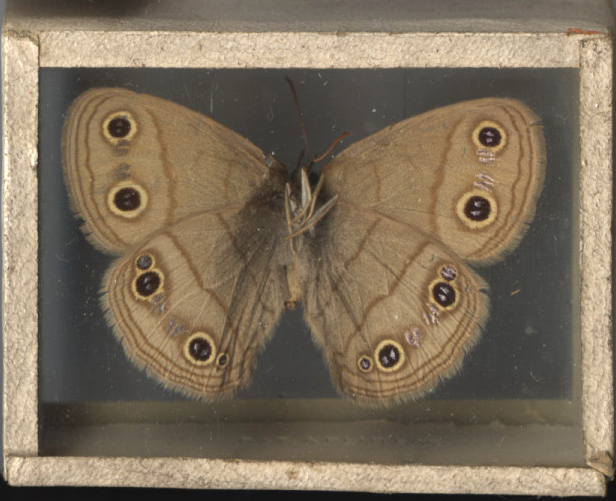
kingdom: Animalia
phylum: Arthropoda
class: Insecta
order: Lepidoptera
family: Nymphalidae
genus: Euptychia
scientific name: Euptychia cymela
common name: Little Wood Satyr
